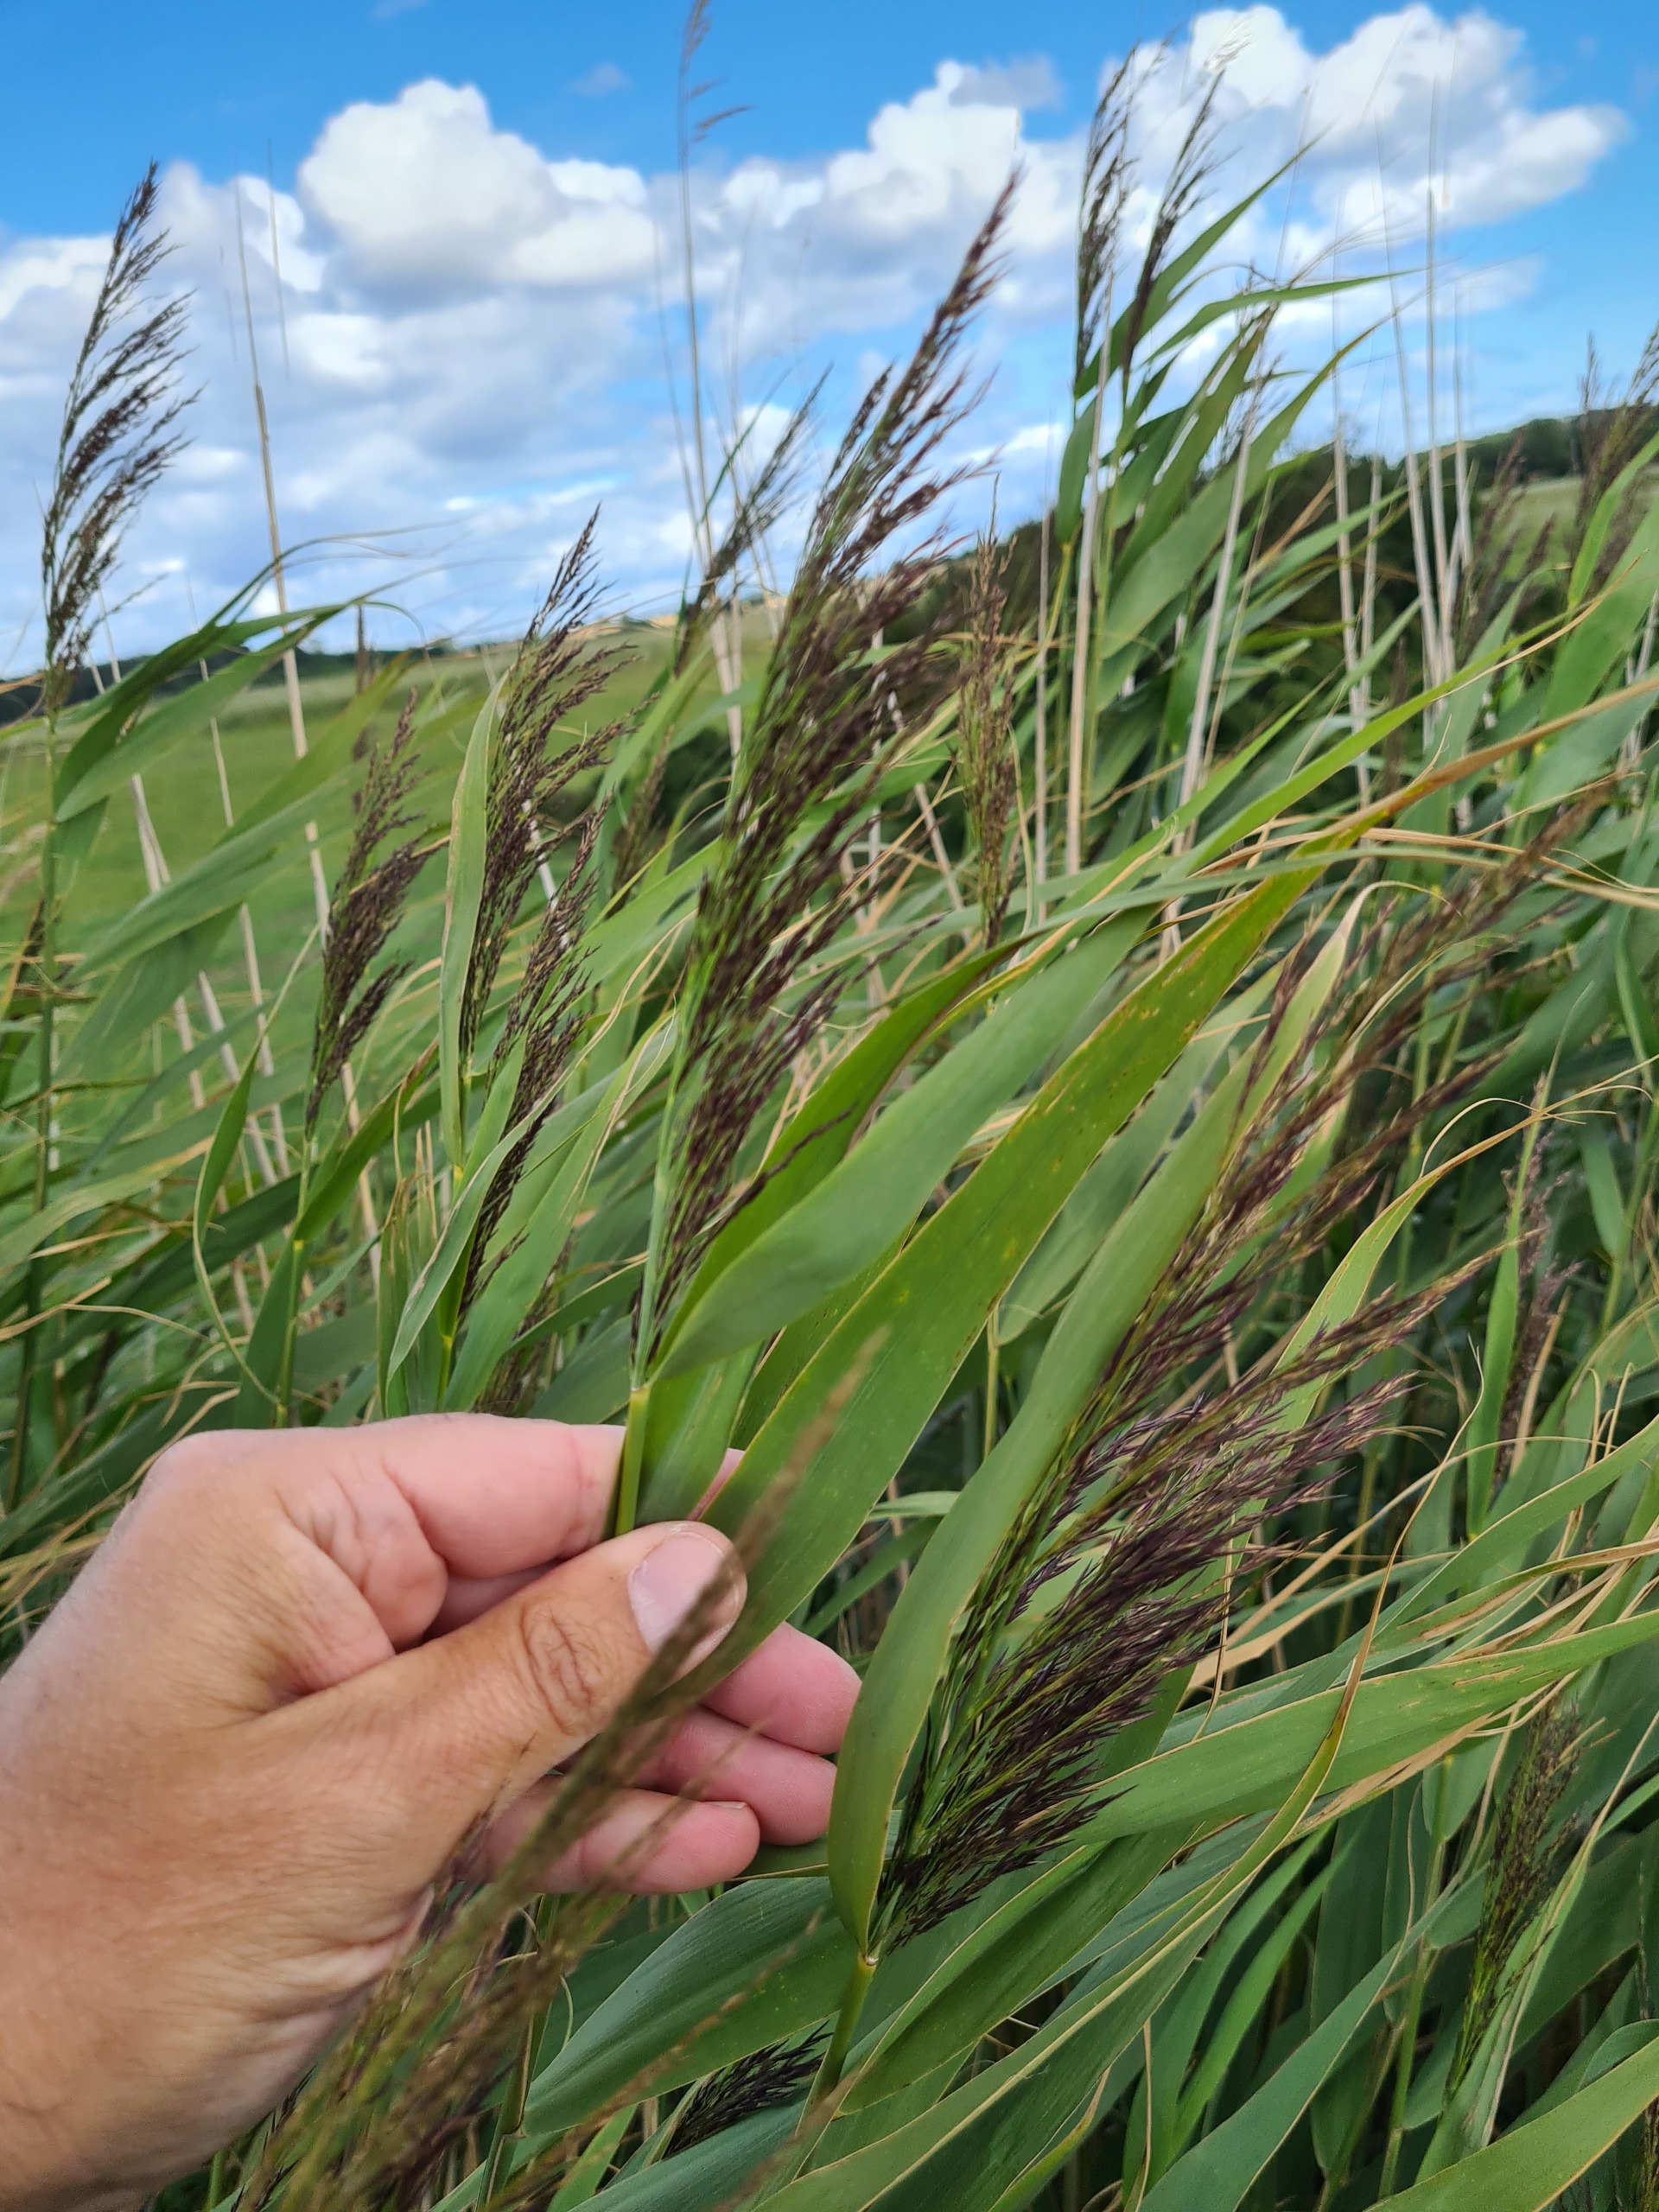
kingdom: Plantae
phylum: Tracheophyta
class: Liliopsida
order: Poales
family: Poaceae
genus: Phragmites
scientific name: Phragmites australis
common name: Tagrør
